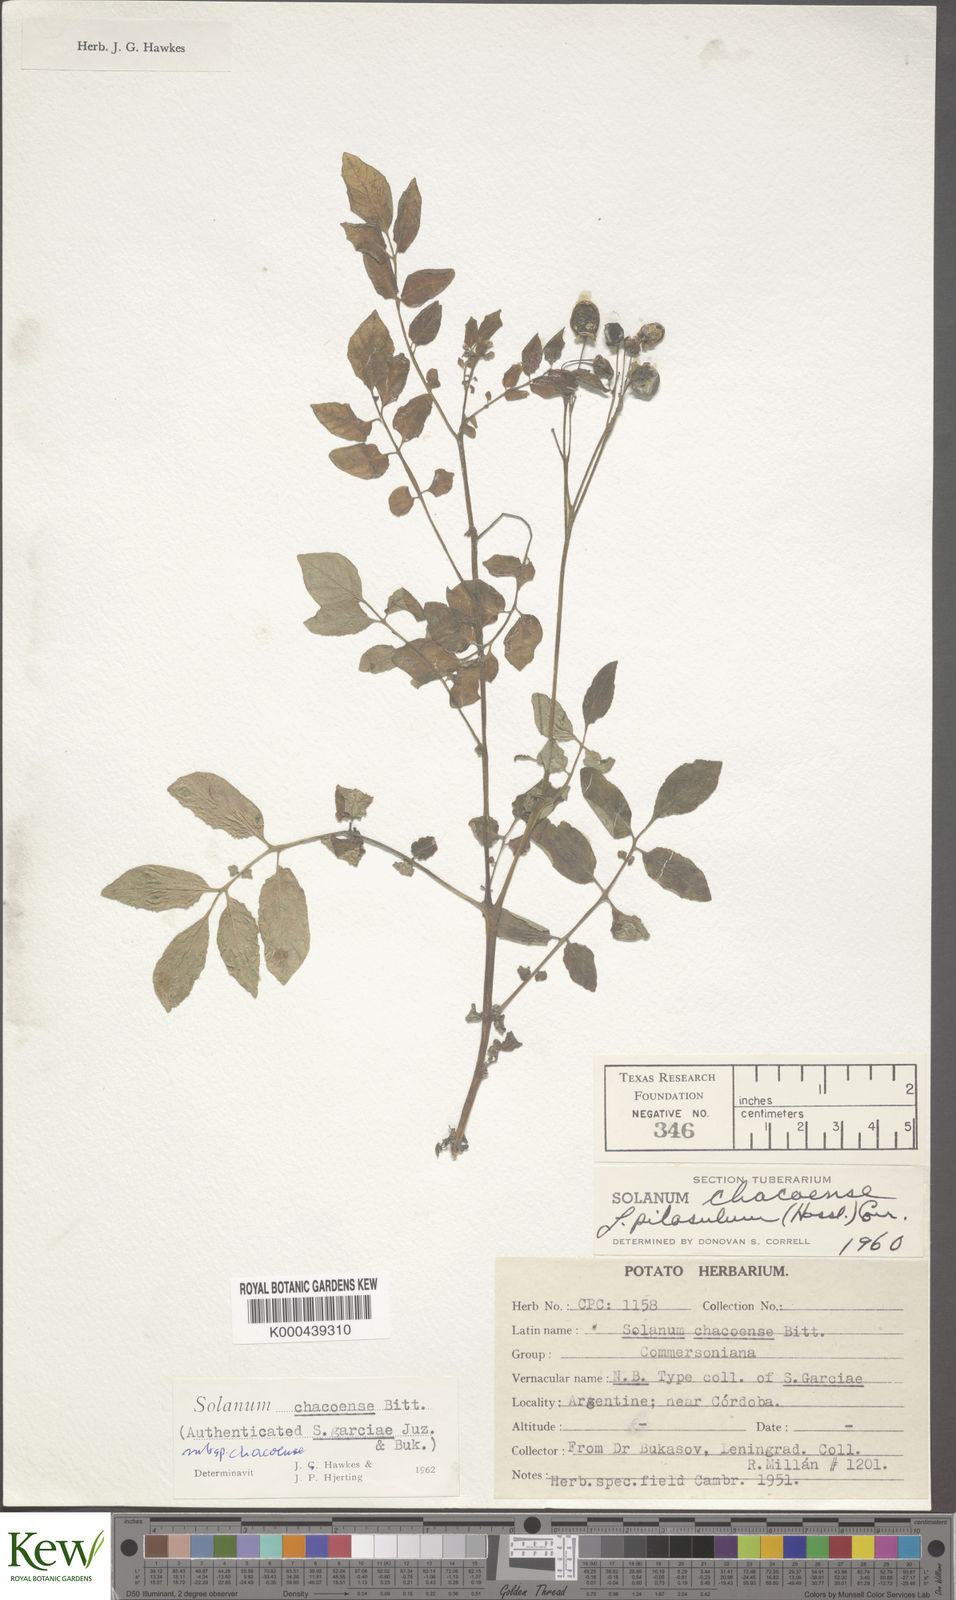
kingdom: Plantae
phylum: Tracheophyta
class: Magnoliopsida
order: Solanales
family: Solanaceae
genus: Solanum
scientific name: Solanum chacoense
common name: Chaco potato
